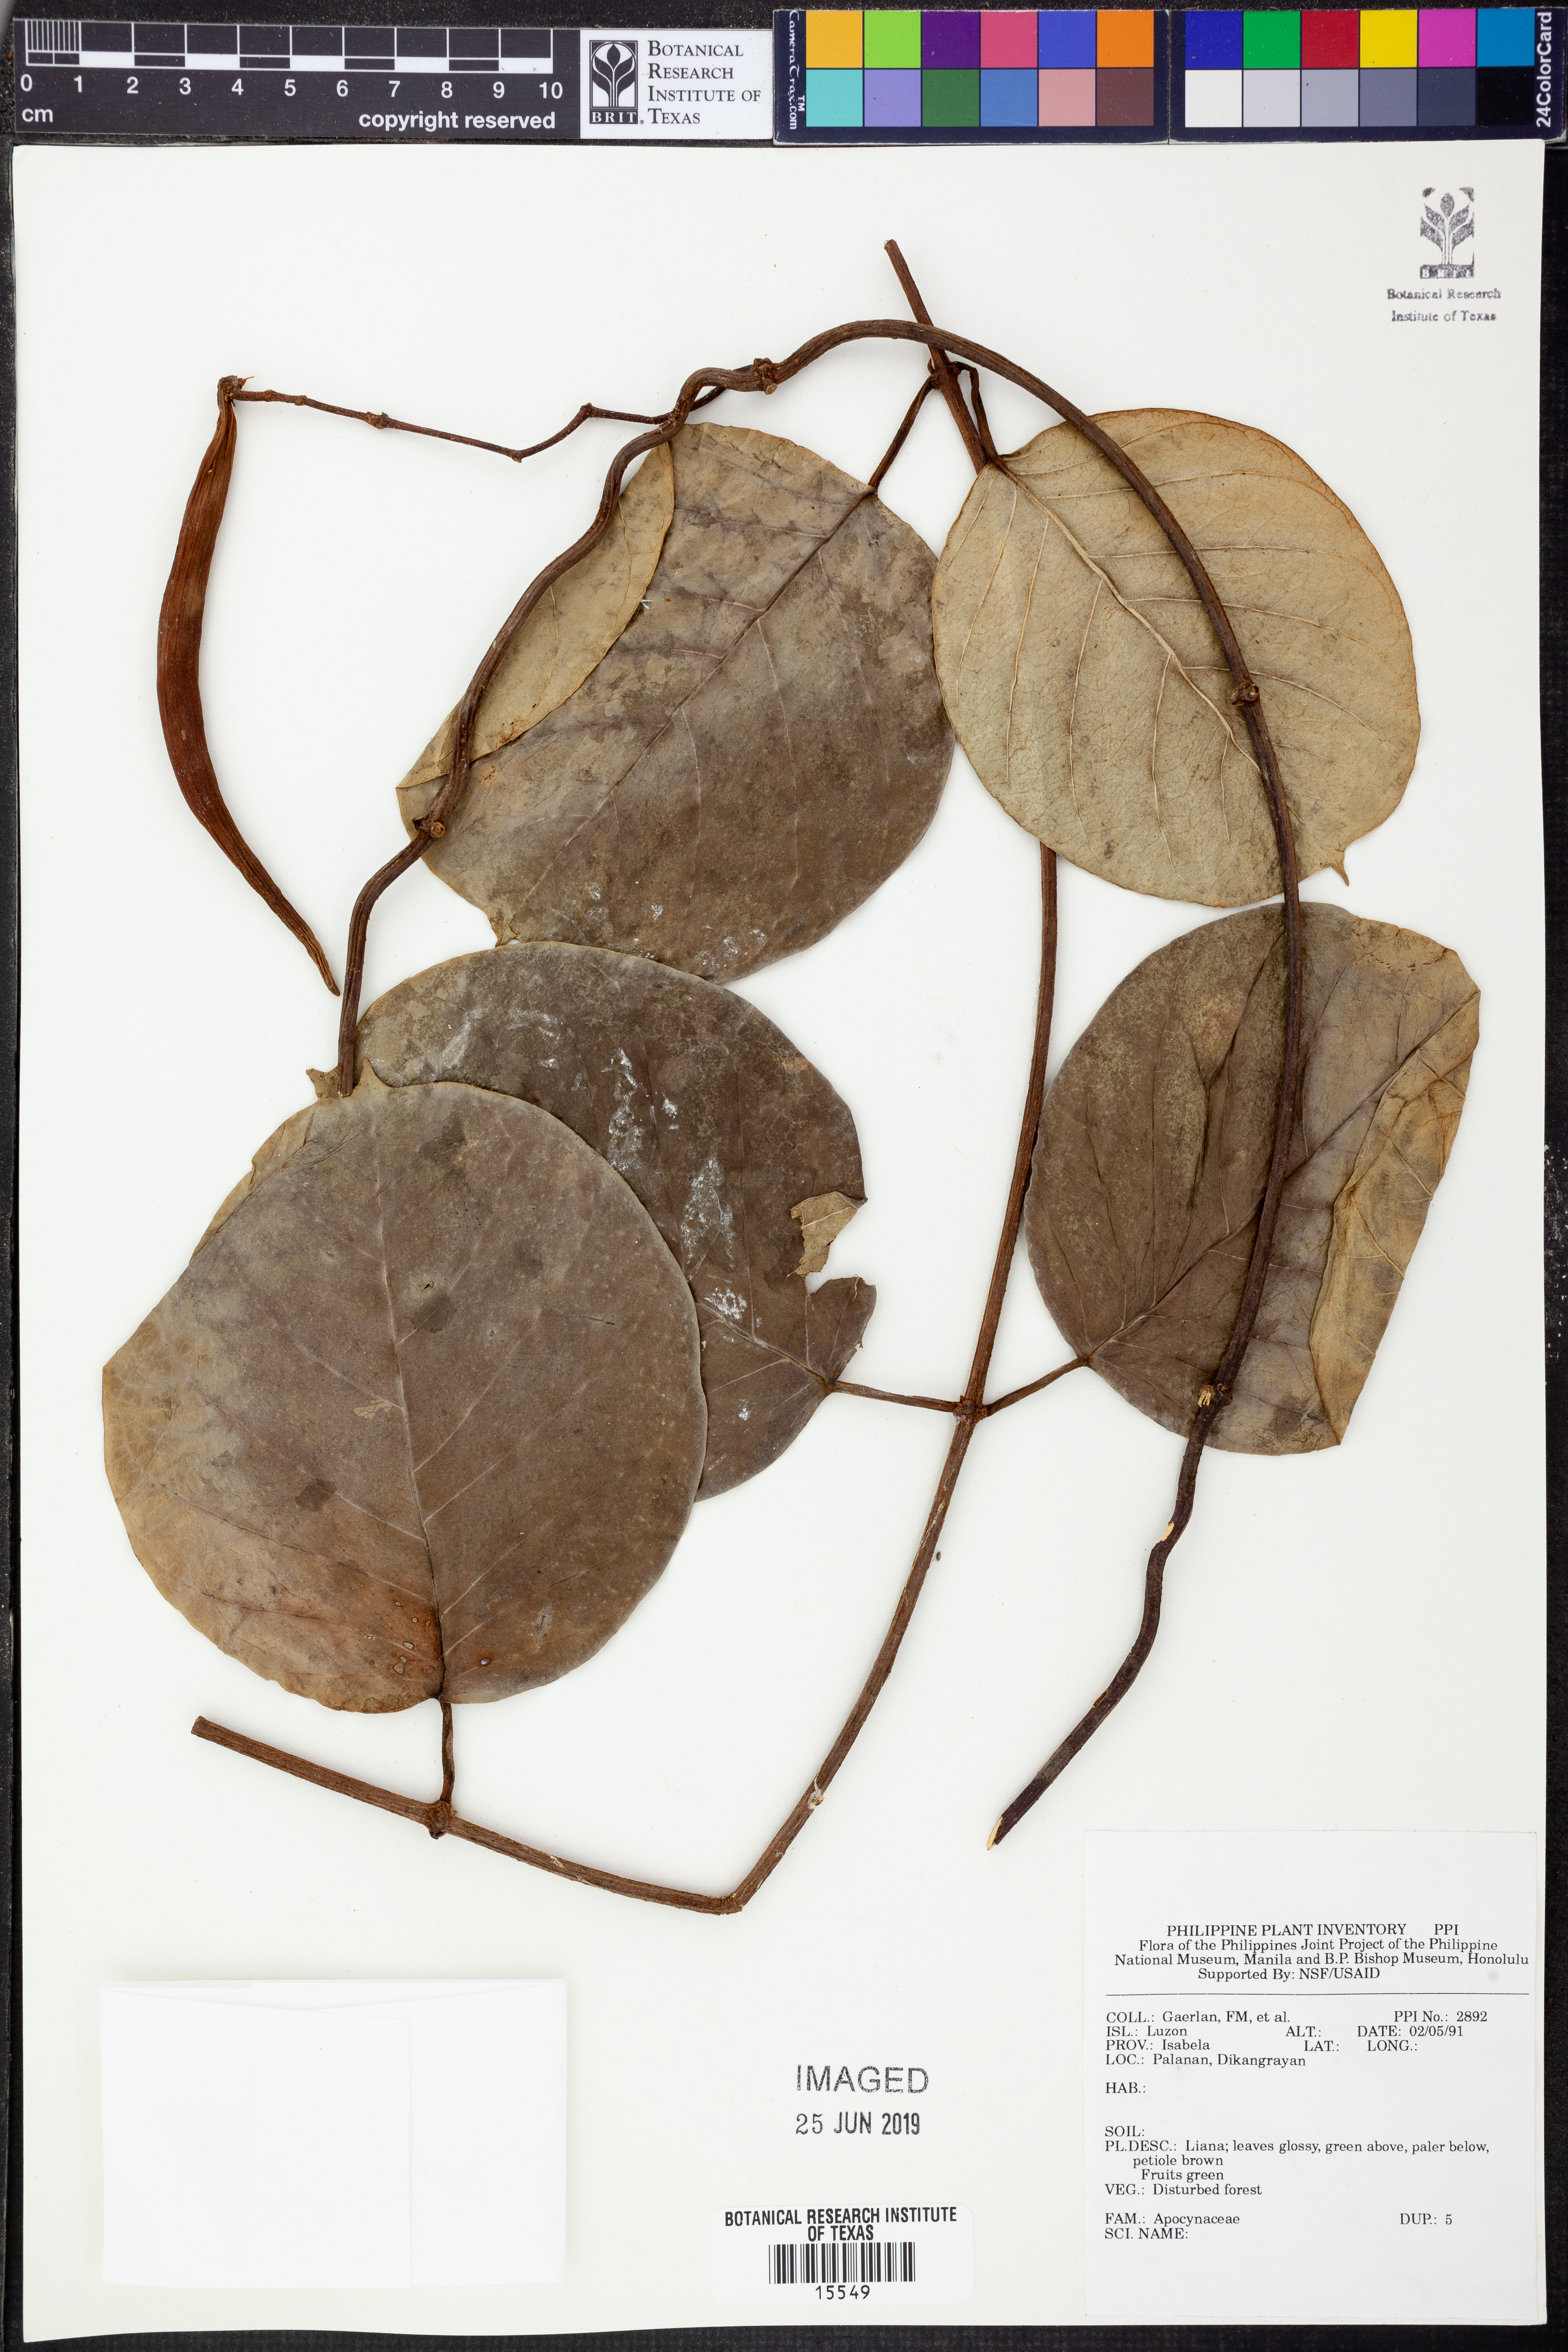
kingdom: Plantae
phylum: Tracheophyta
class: Magnoliopsida
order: Gentianales
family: Apocynaceae
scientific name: Apocynaceae
